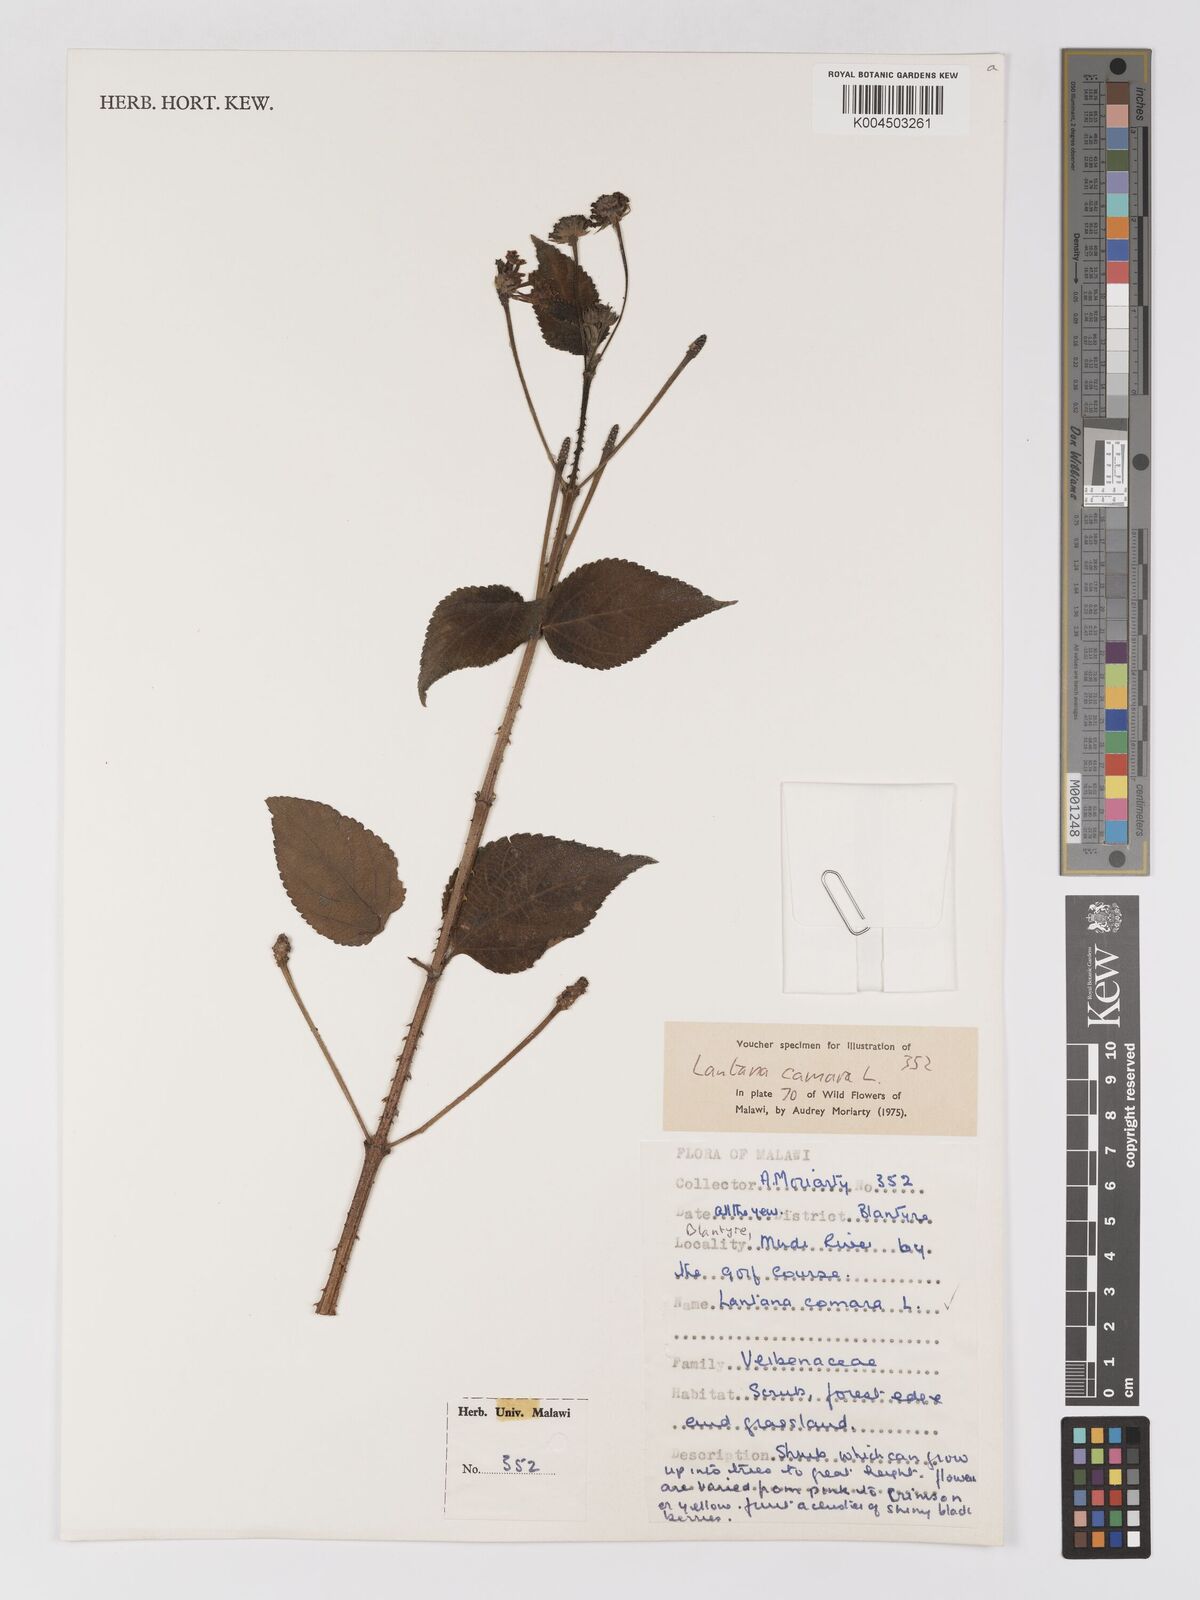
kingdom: Plantae
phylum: Tracheophyta
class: Magnoliopsida
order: Lamiales
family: Verbenaceae
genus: Lantana
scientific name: Lantana camara
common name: Lantana
